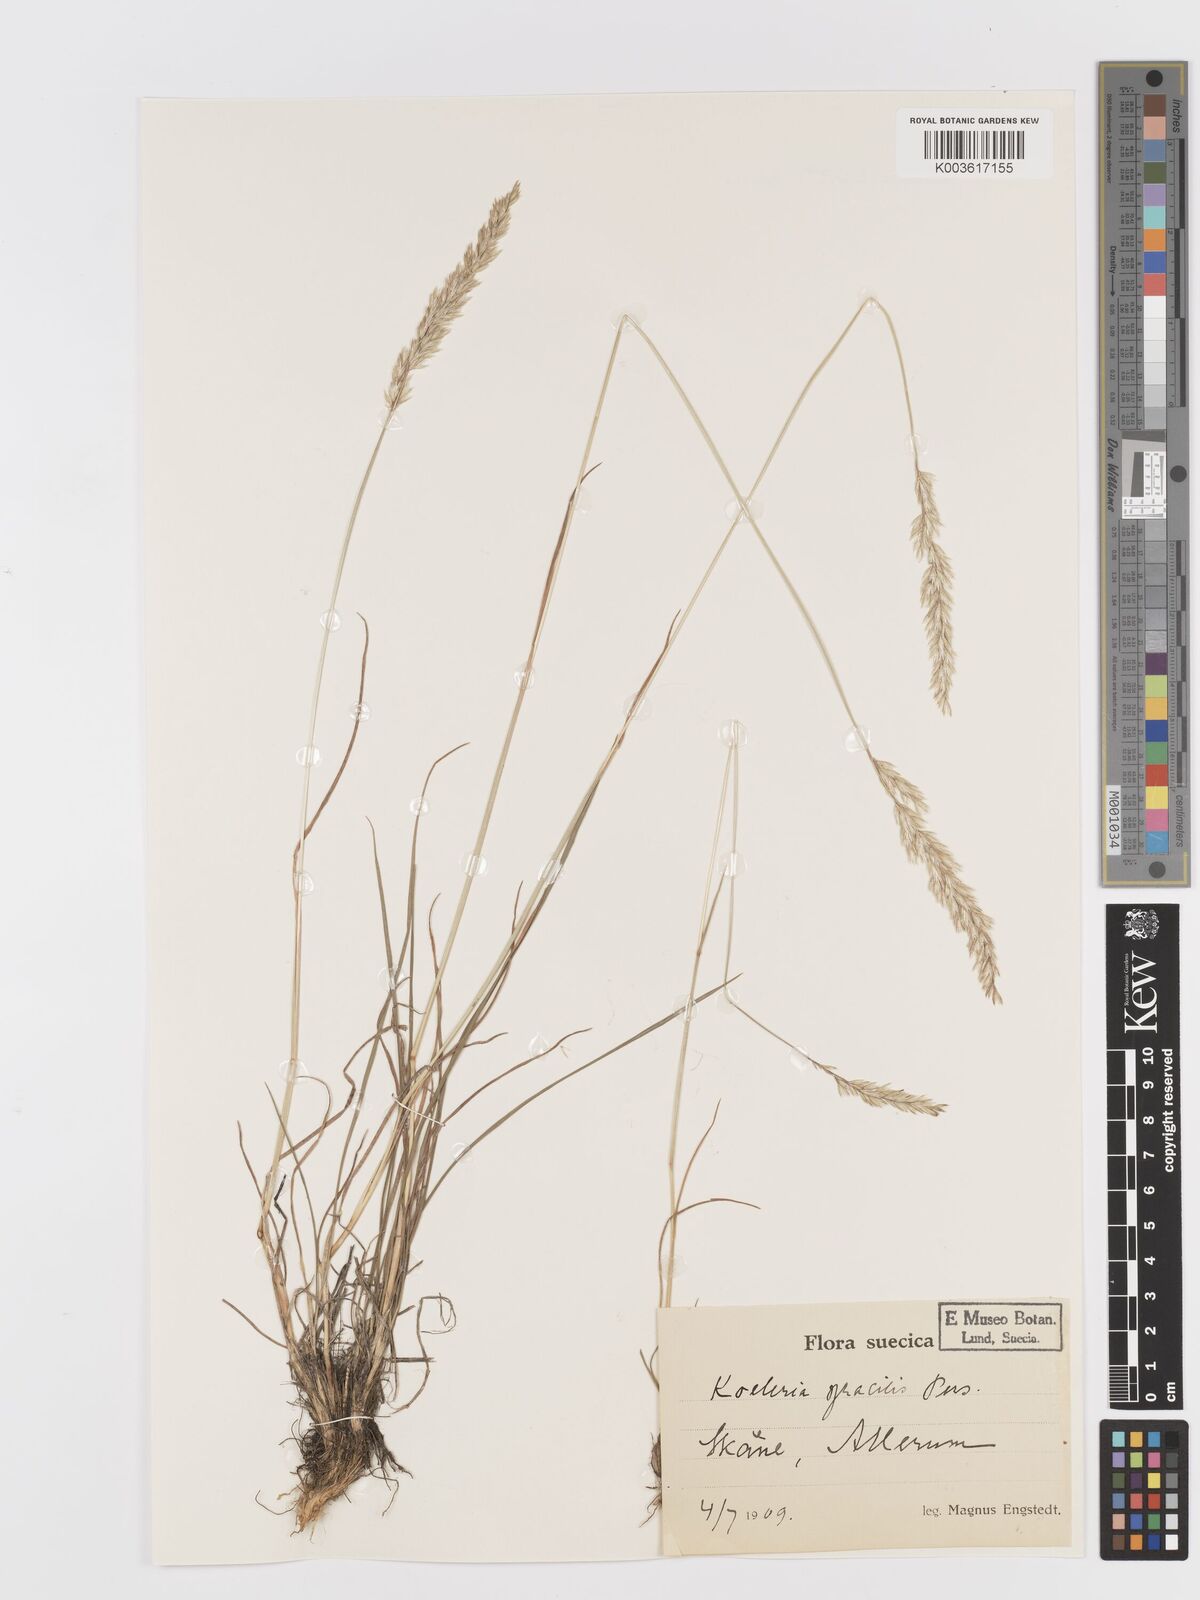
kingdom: Plantae
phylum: Tracheophyta
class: Liliopsida
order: Poales
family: Poaceae
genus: Koeleria
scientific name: Koeleria macrantha
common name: Crested hair-grass
